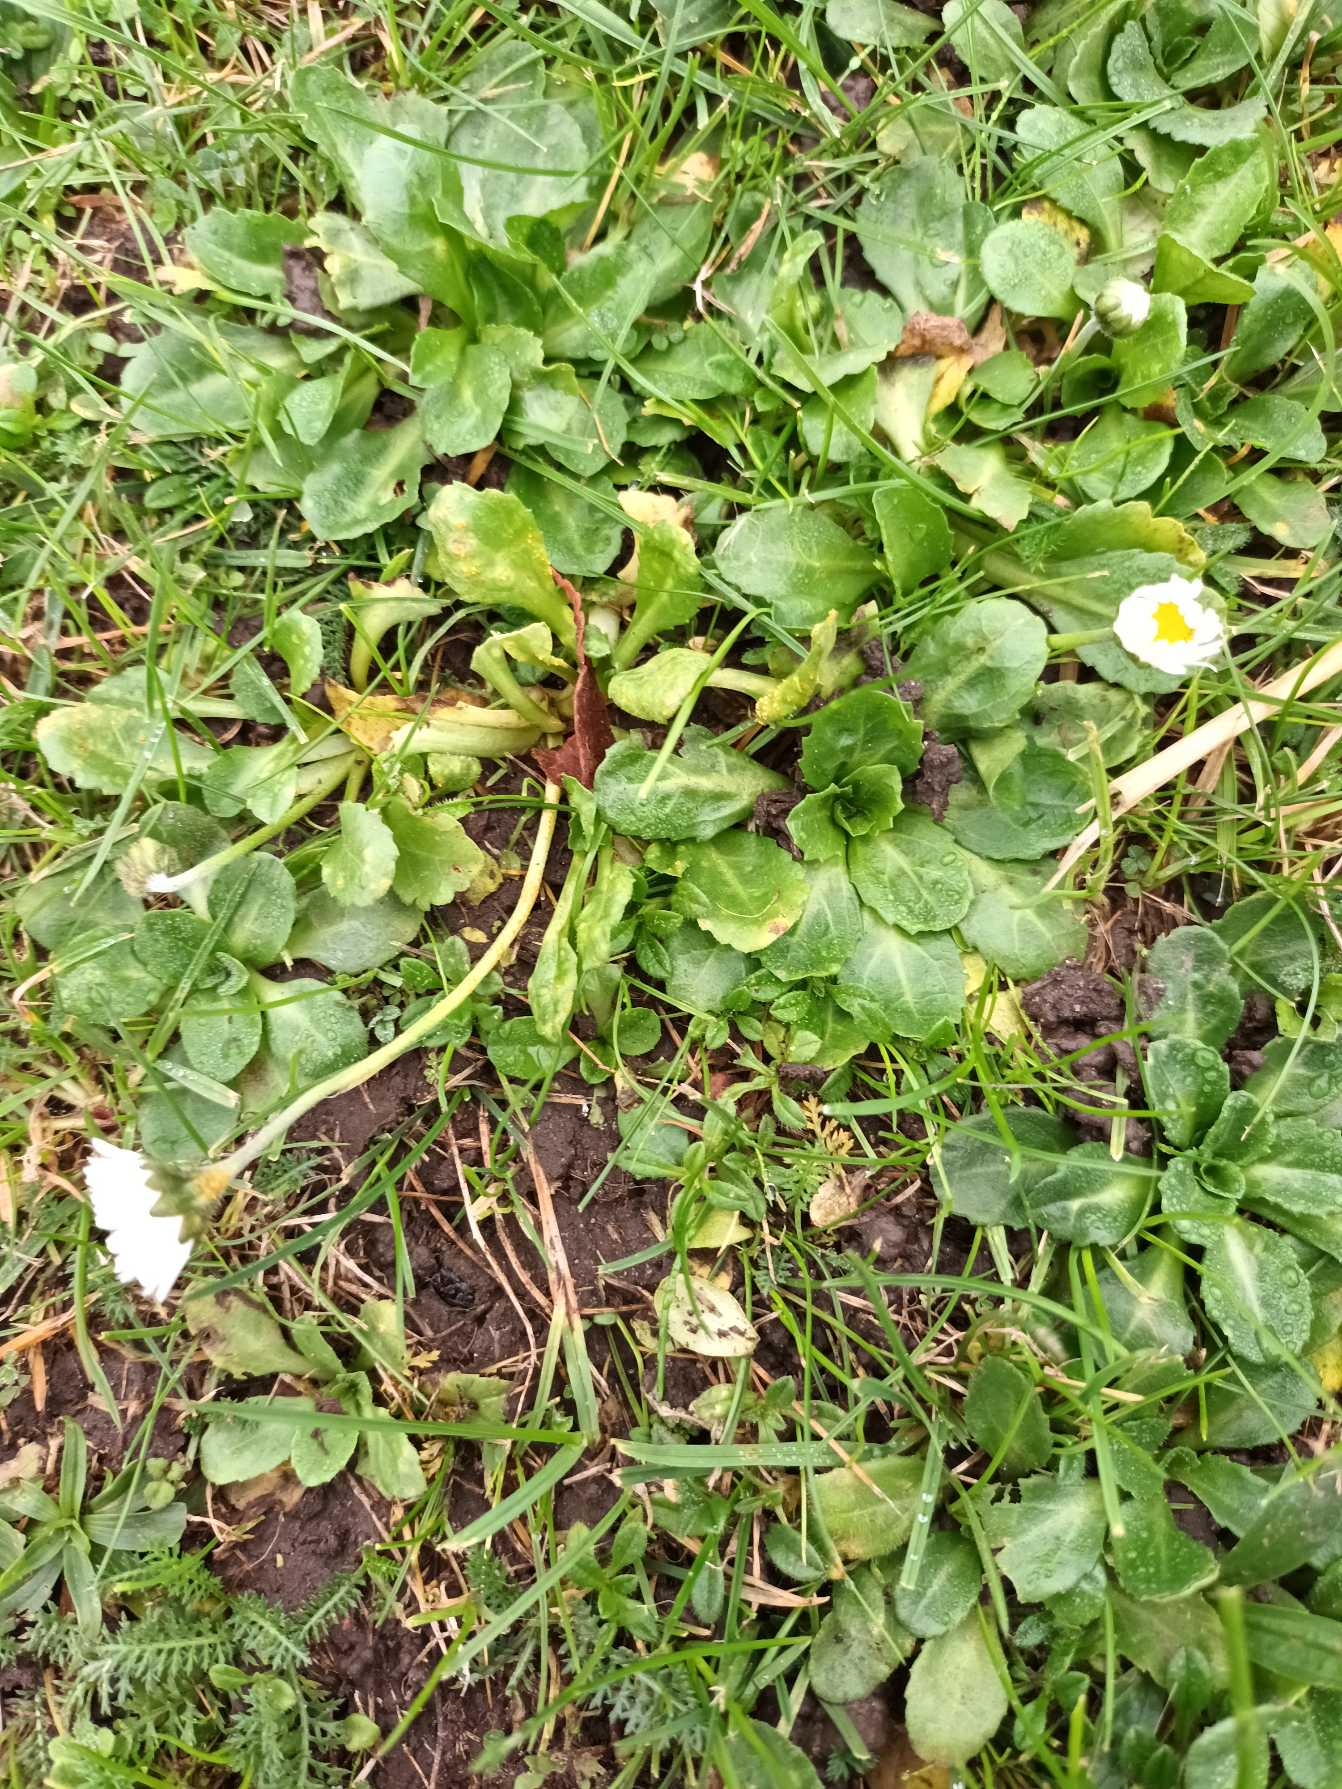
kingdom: Plantae
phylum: Tracheophyta
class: Magnoliopsida
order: Asterales
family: Asteraceae
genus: Bellis
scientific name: Bellis perennis
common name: Tusindfryd
